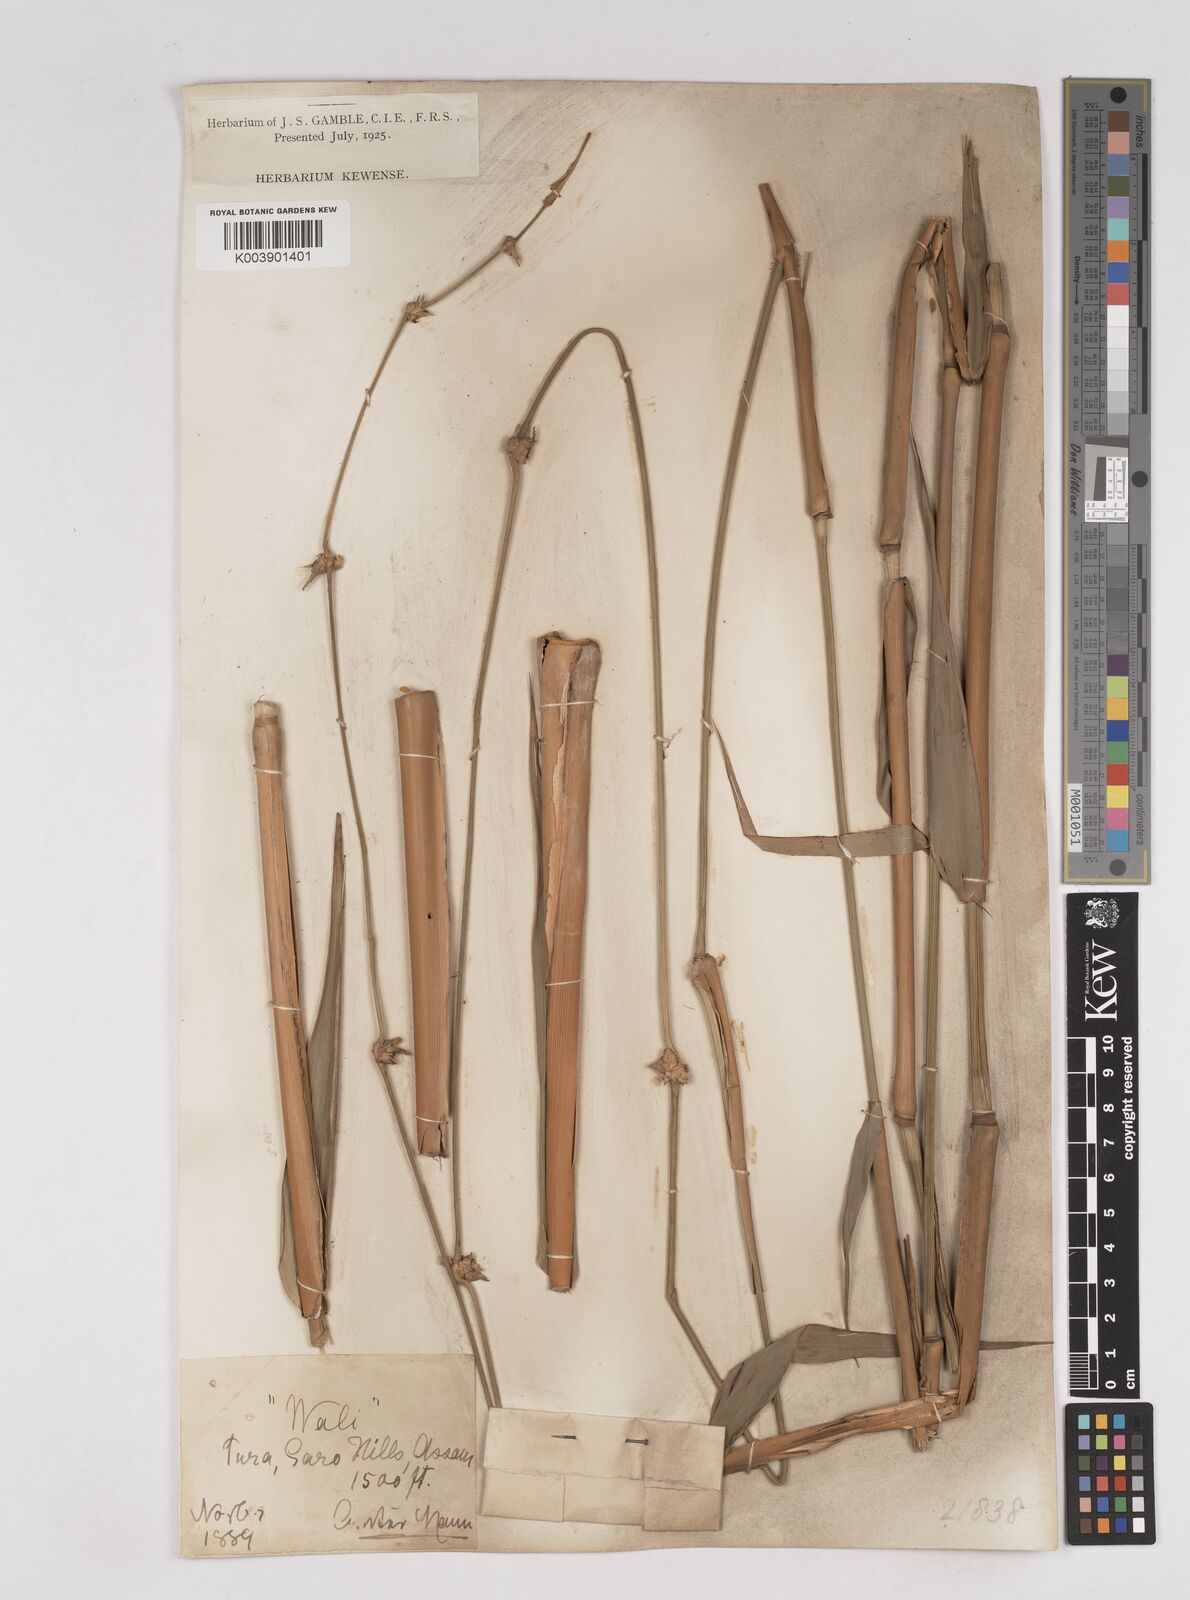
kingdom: Plantae
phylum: Tracheophyta
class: Liliopsida
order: Poales
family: Poaceae
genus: Schizostachyum
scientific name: Schizostachyum helferi
